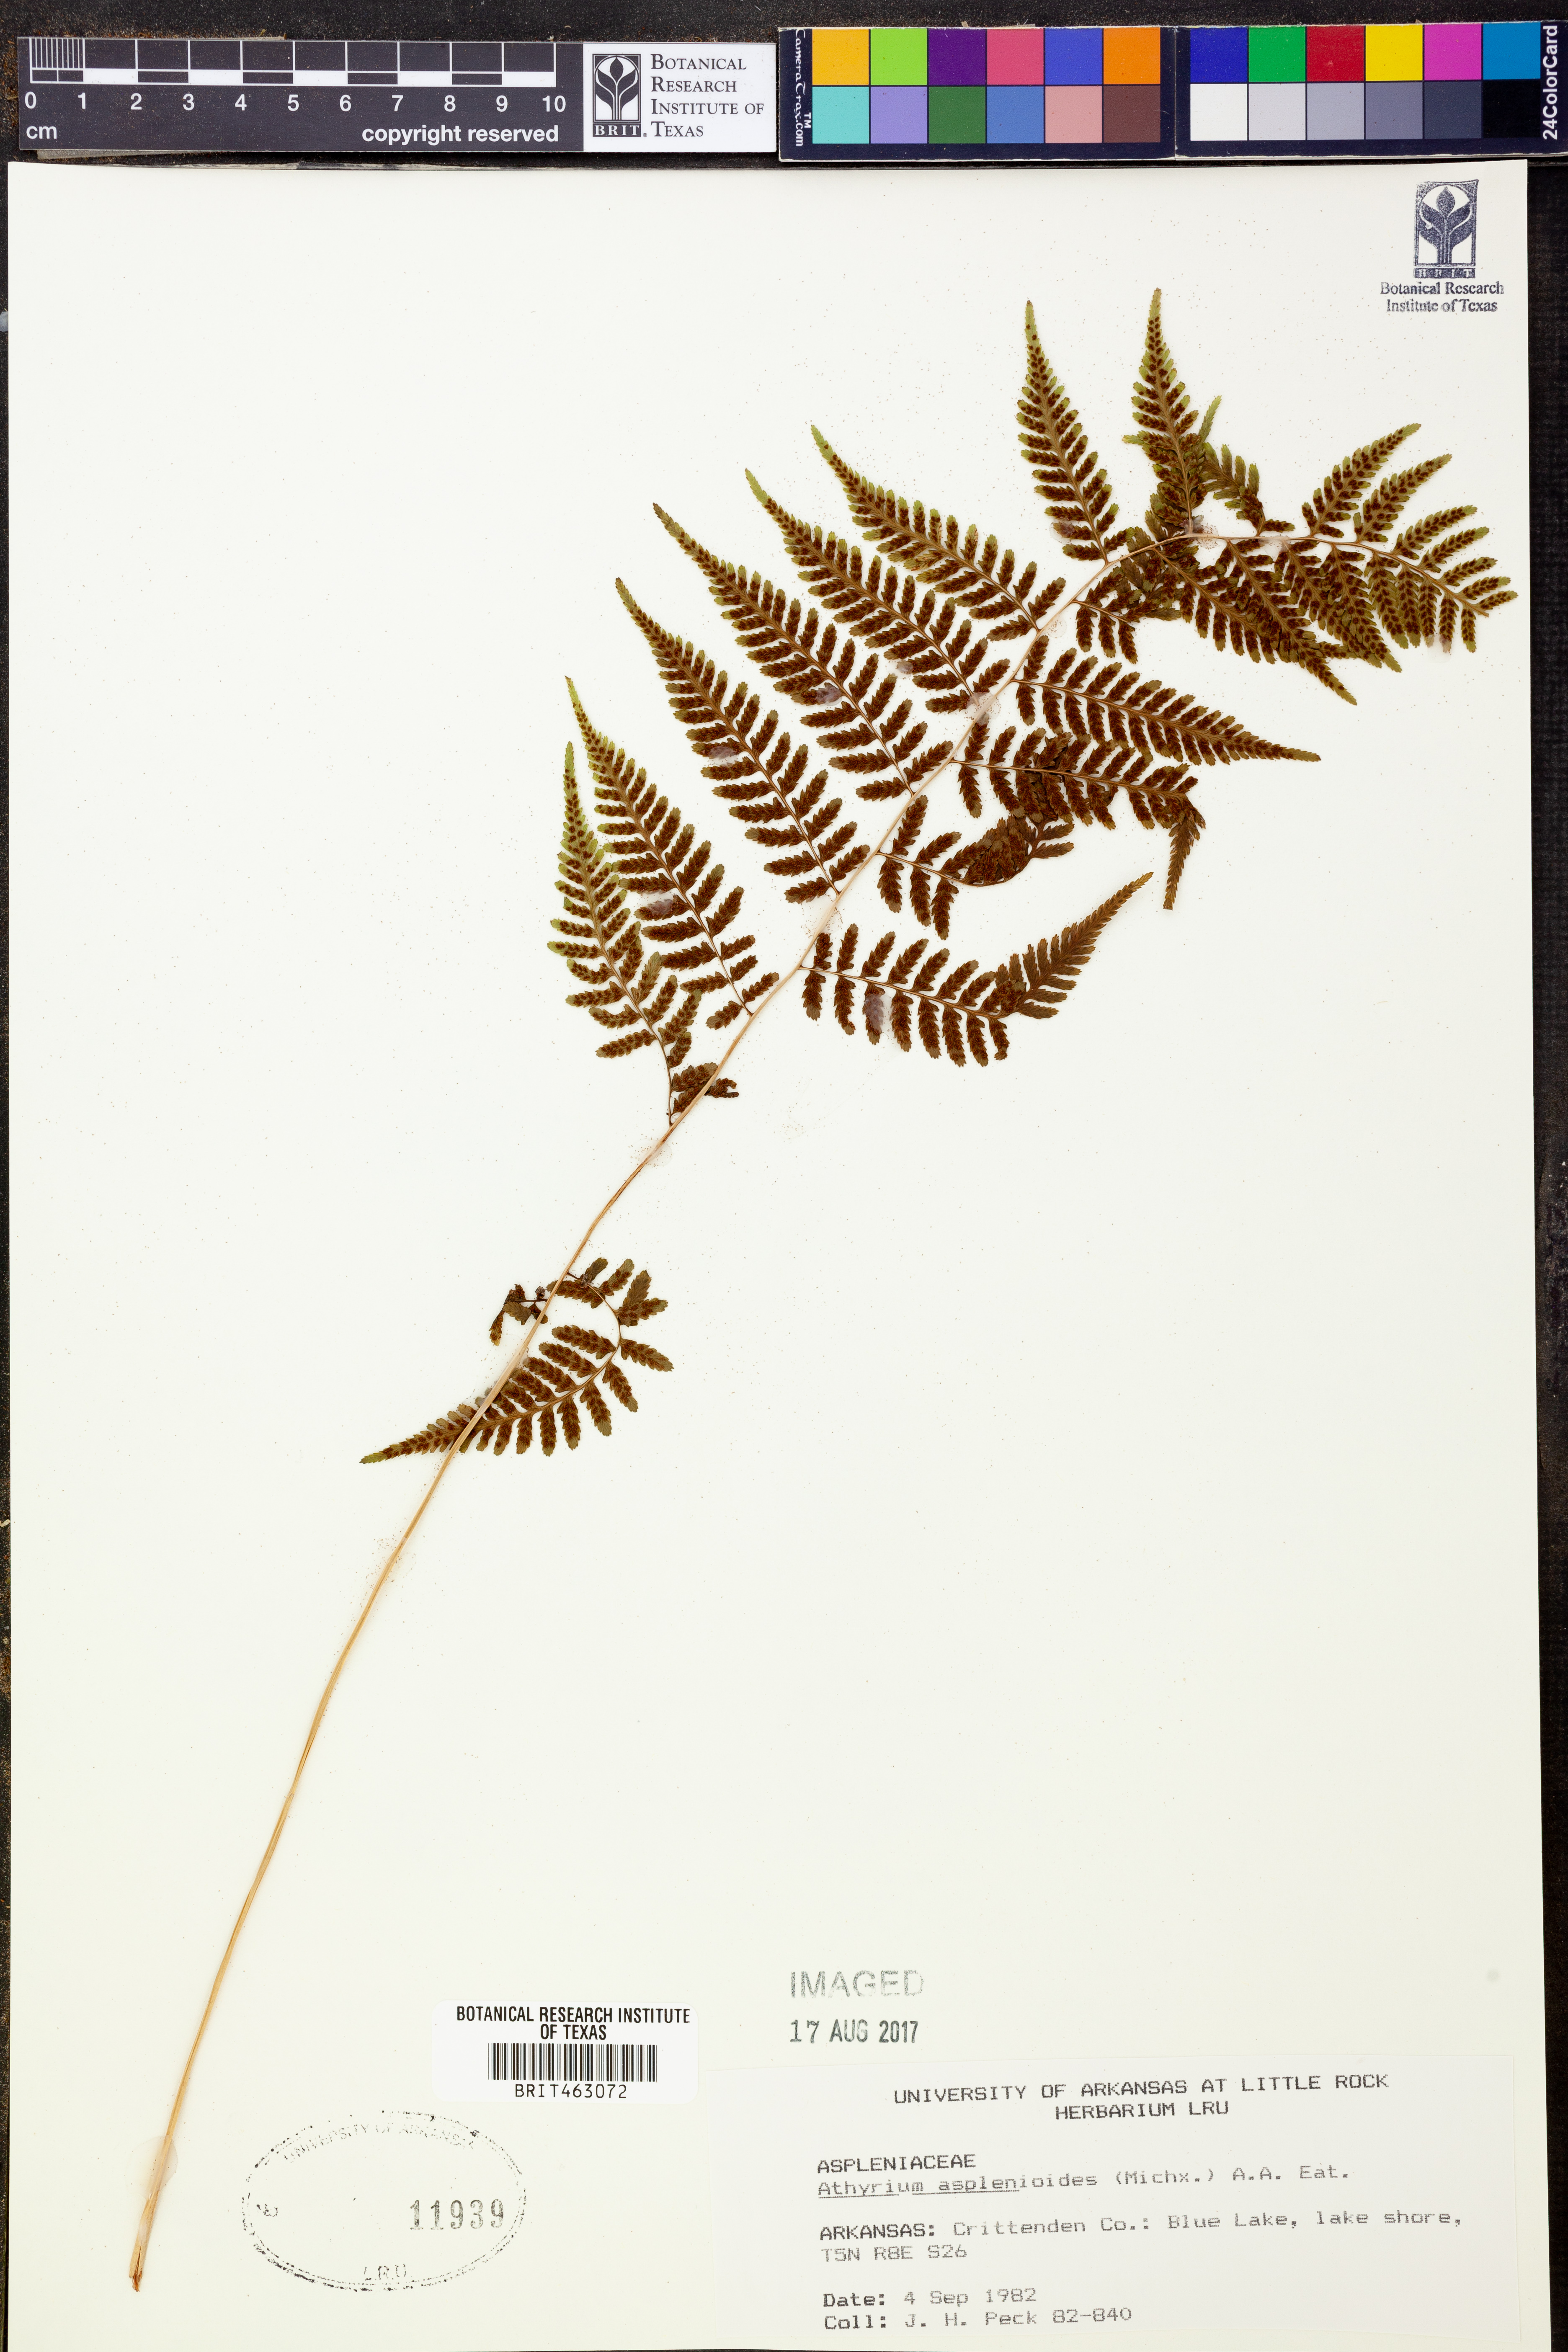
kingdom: Plantae
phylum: Tracheophyta
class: Polypodiopsida
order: Polypodiales
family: Athyriaceae
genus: Athyrium
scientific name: Athyrium asplenioides
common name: Southern lady fern
